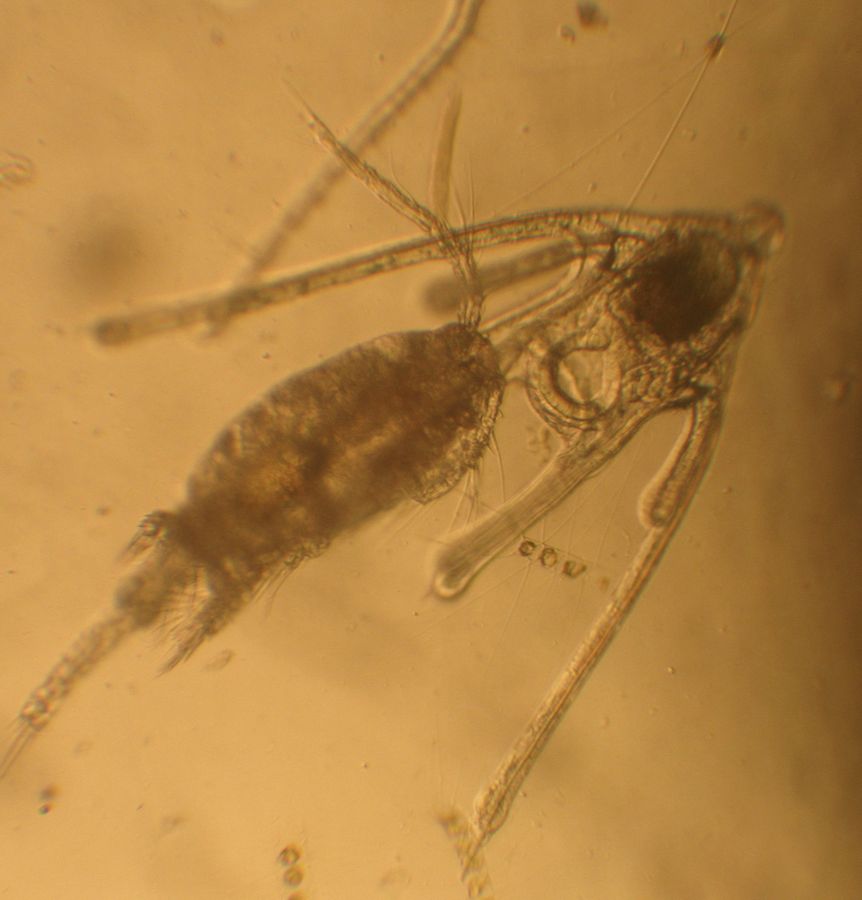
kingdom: Animalia
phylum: Echinodermata
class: Ophiuroidea
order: Amphilepidida
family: Ophiopholidae
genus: Ophiopholis
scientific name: Ophiopholis aculeata
